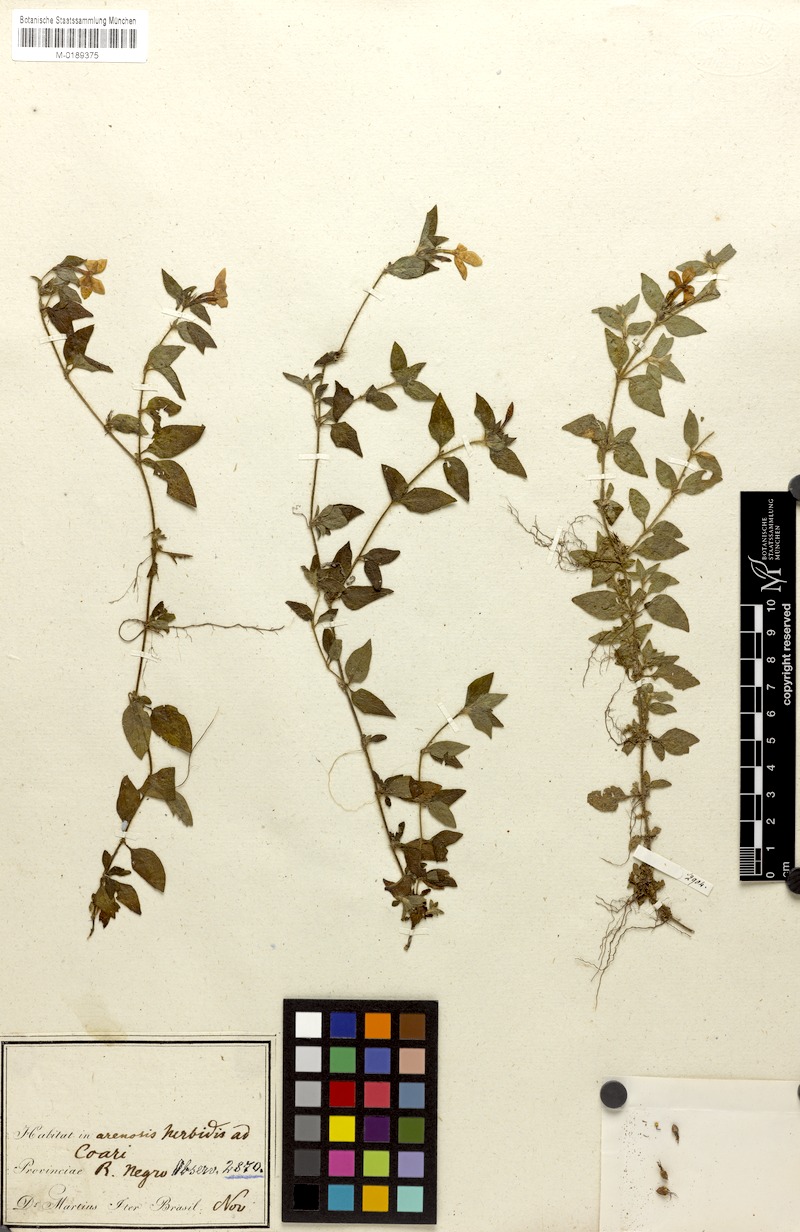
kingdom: Plantae
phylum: Tracheophyta
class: Magnoliopsida
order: Gentianales
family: Rubiaceae
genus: Sipanea
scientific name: Sipanea pratensis
